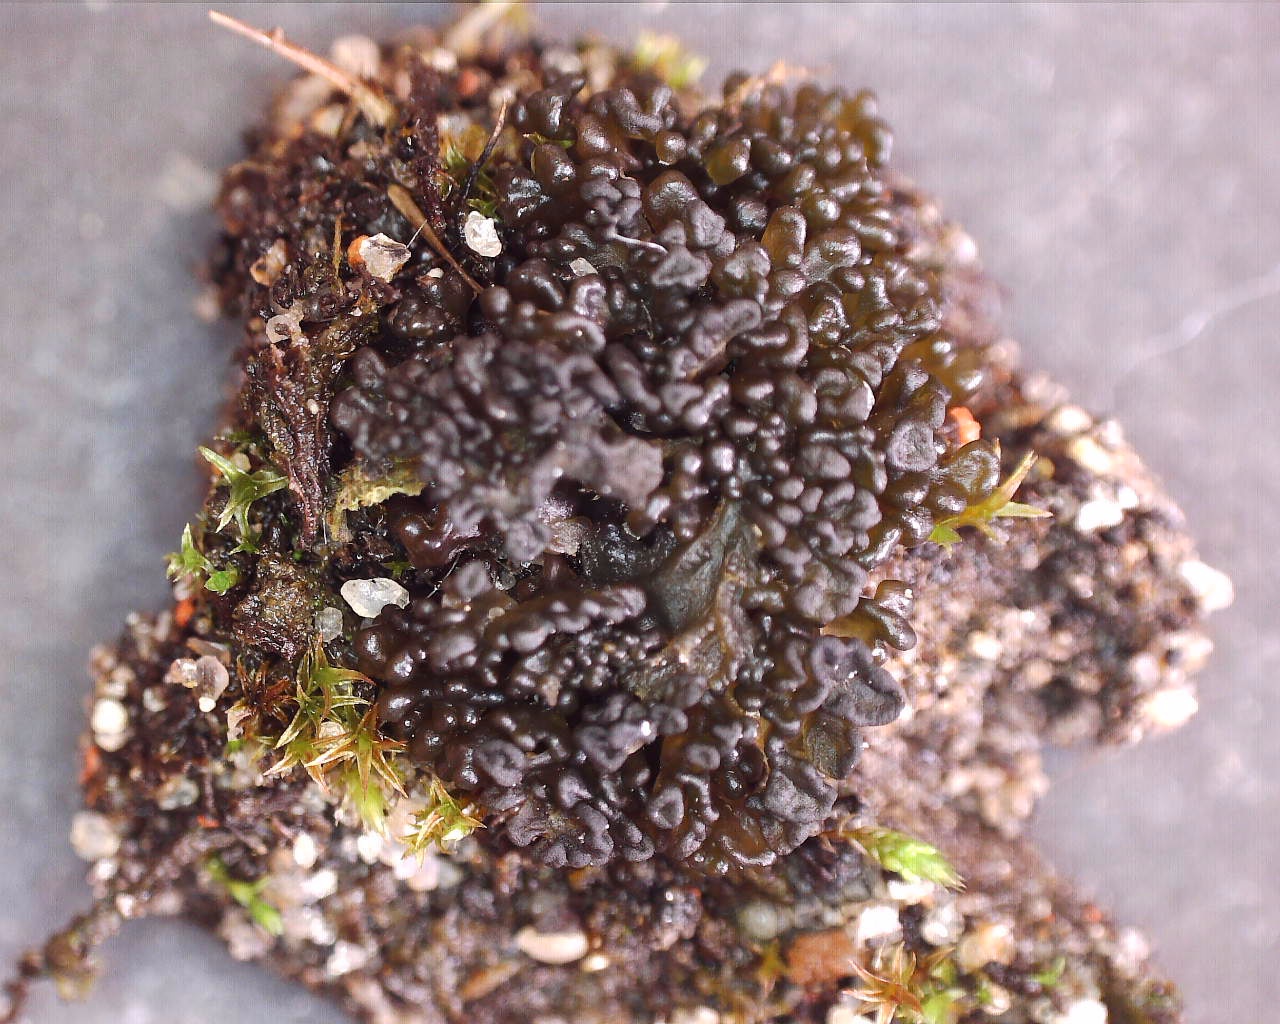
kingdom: Fungi
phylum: Ascomycota
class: Lecanoromycetes
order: Peltigerales
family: Collemataceae
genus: Enchylium
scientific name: Enchylium tenax
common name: tyk bævrelav
